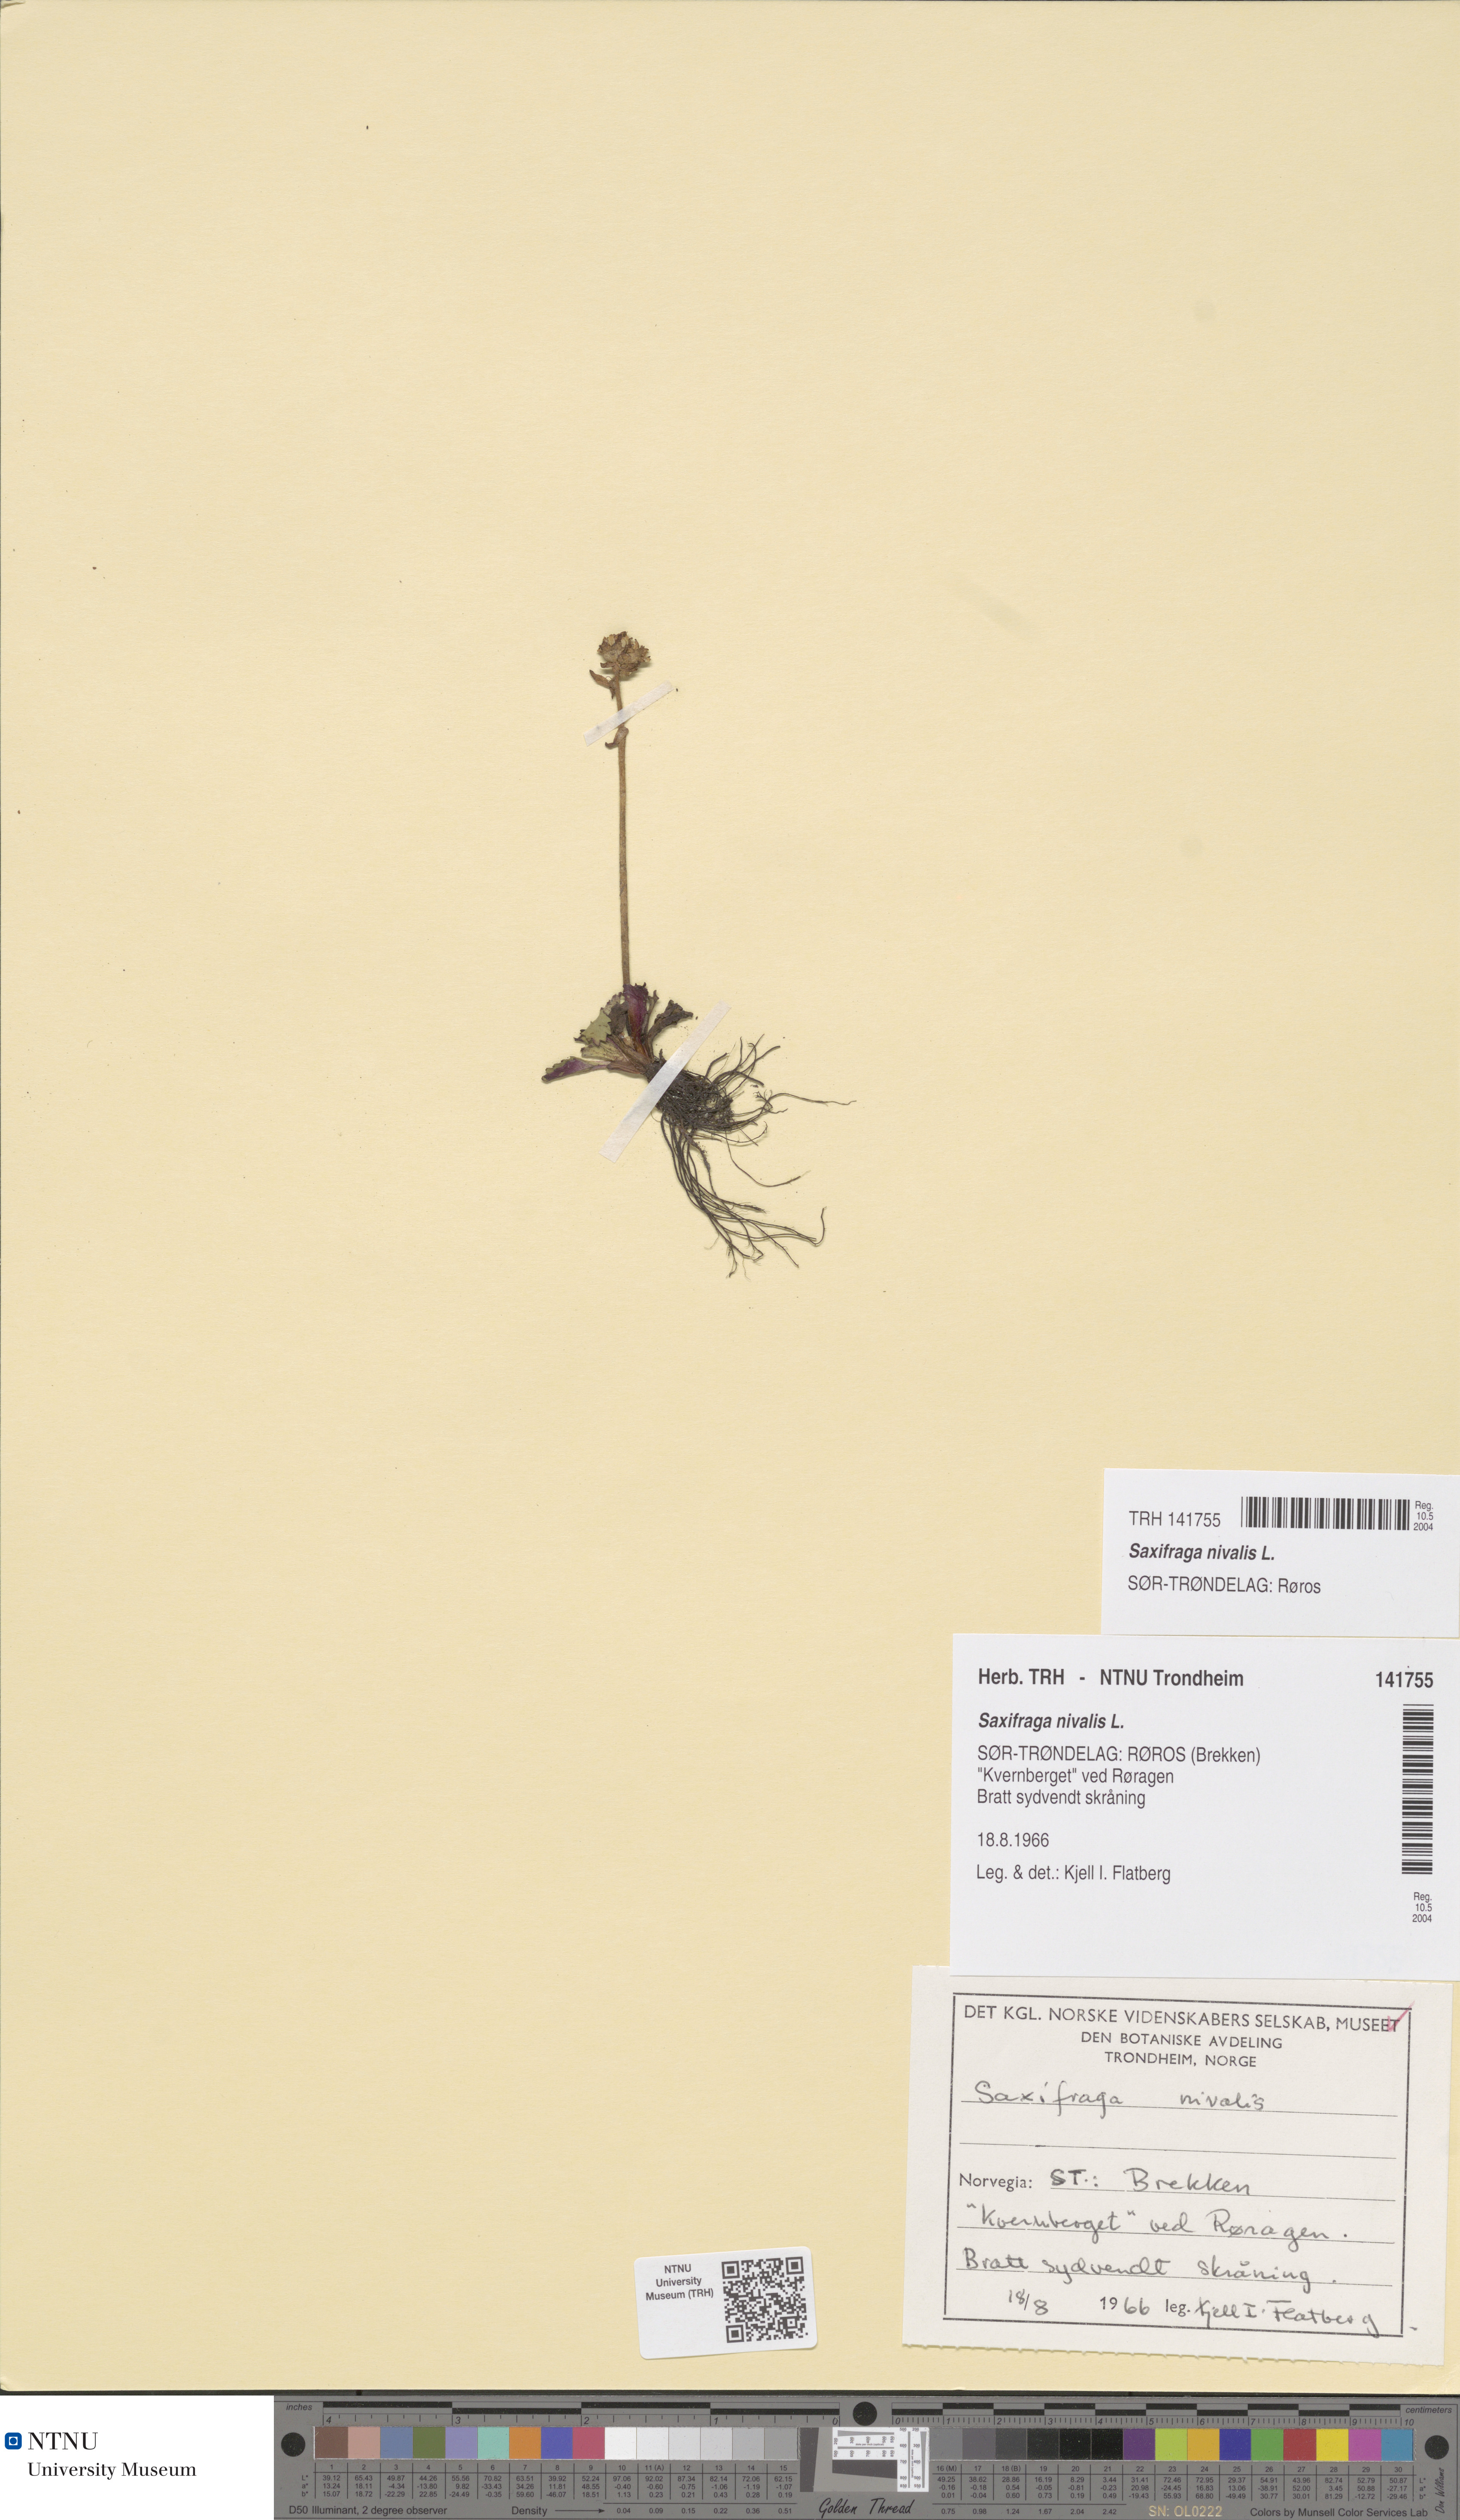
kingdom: Plantae
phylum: Tracheophyta
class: Magnoliopsida
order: Saxifragales
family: Saxifragaceae
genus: Micranthes
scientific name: Micranthes nivalis
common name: Alpine saxifrage
